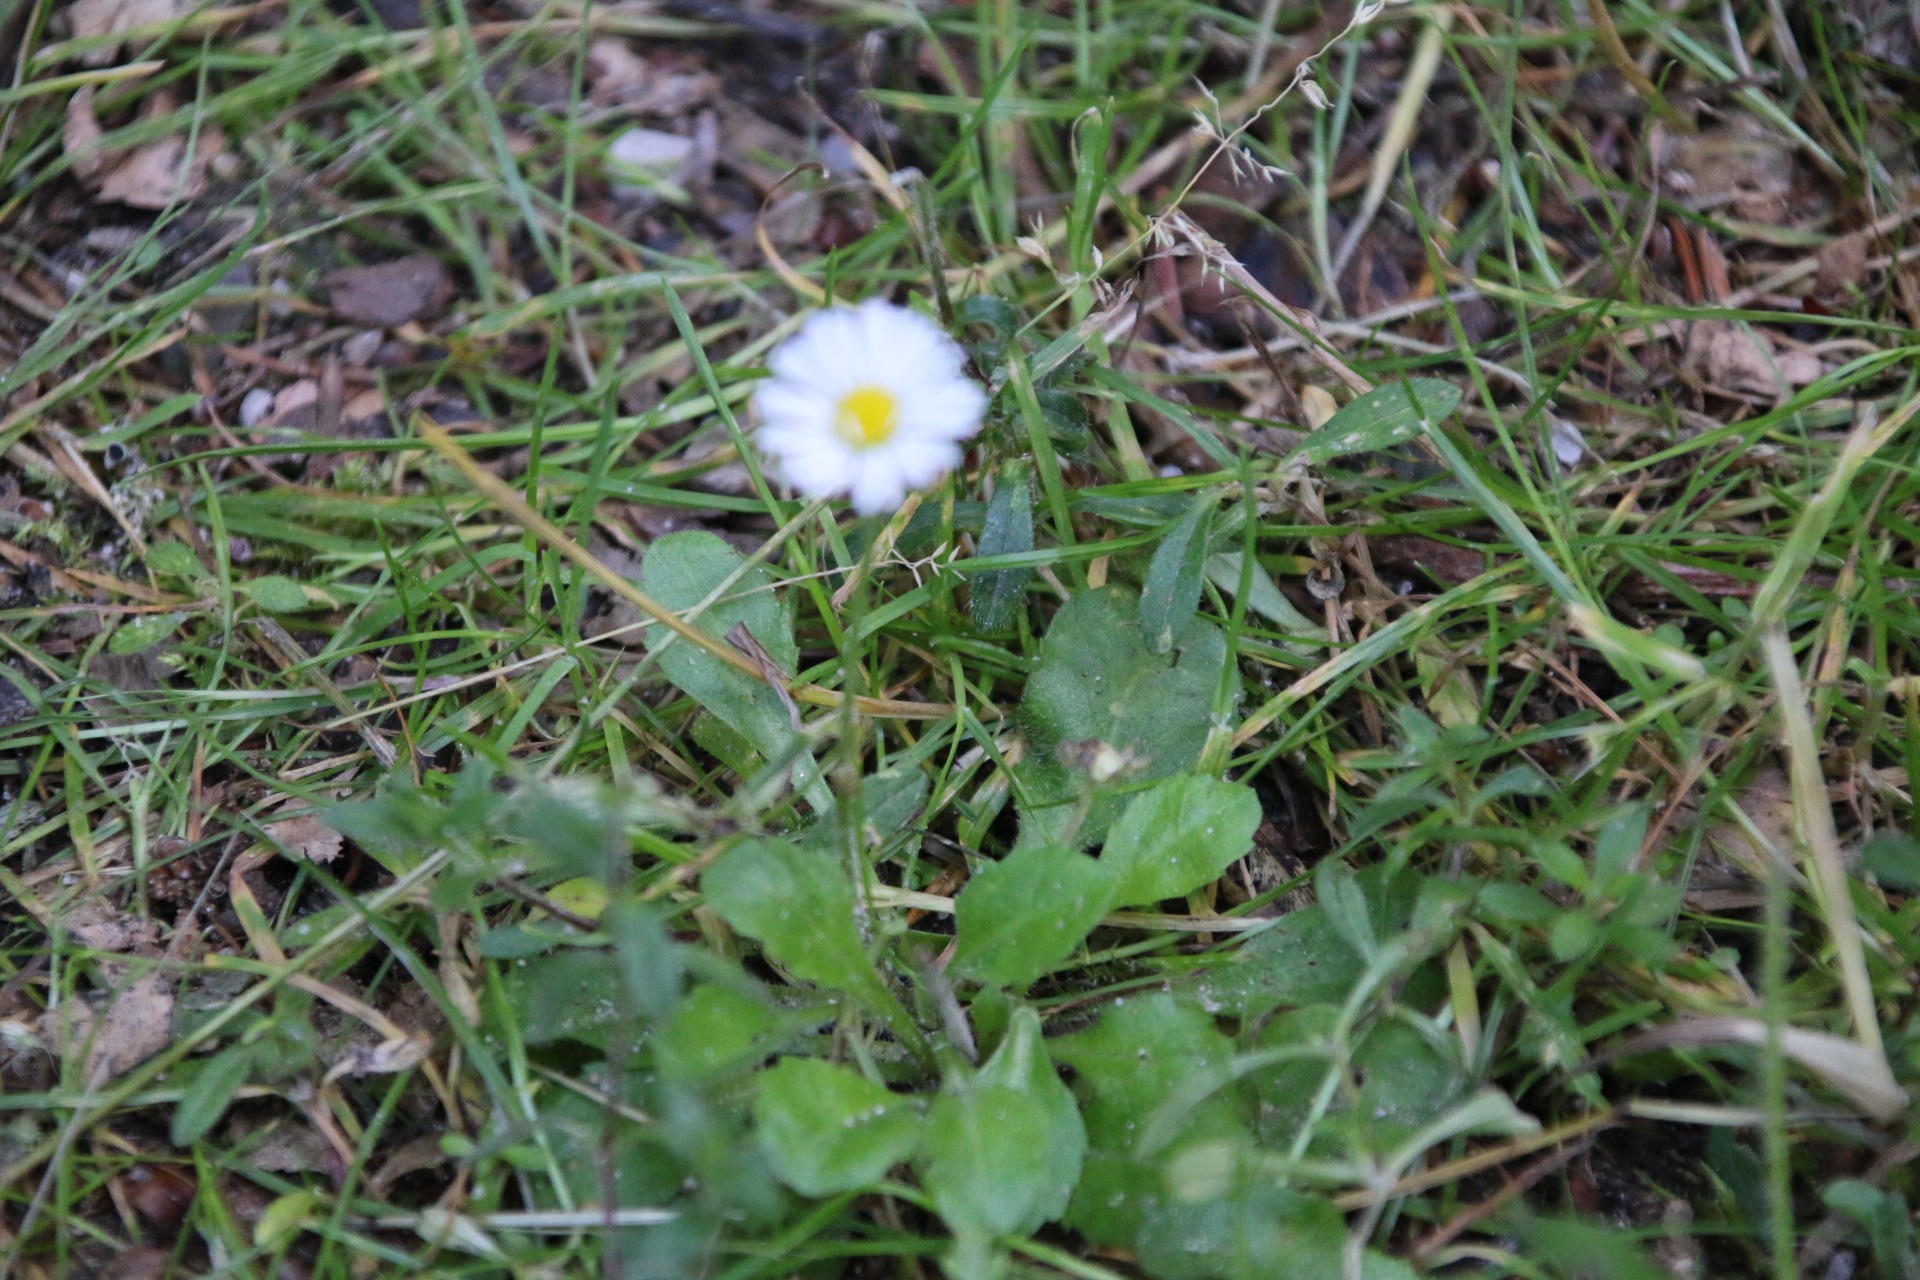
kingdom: Plantae
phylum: Tracheophyta
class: Magnoliopsida
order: Asterales
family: Asteraceae
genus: Bellis
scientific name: Bellis perennis
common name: Tusindfryd
